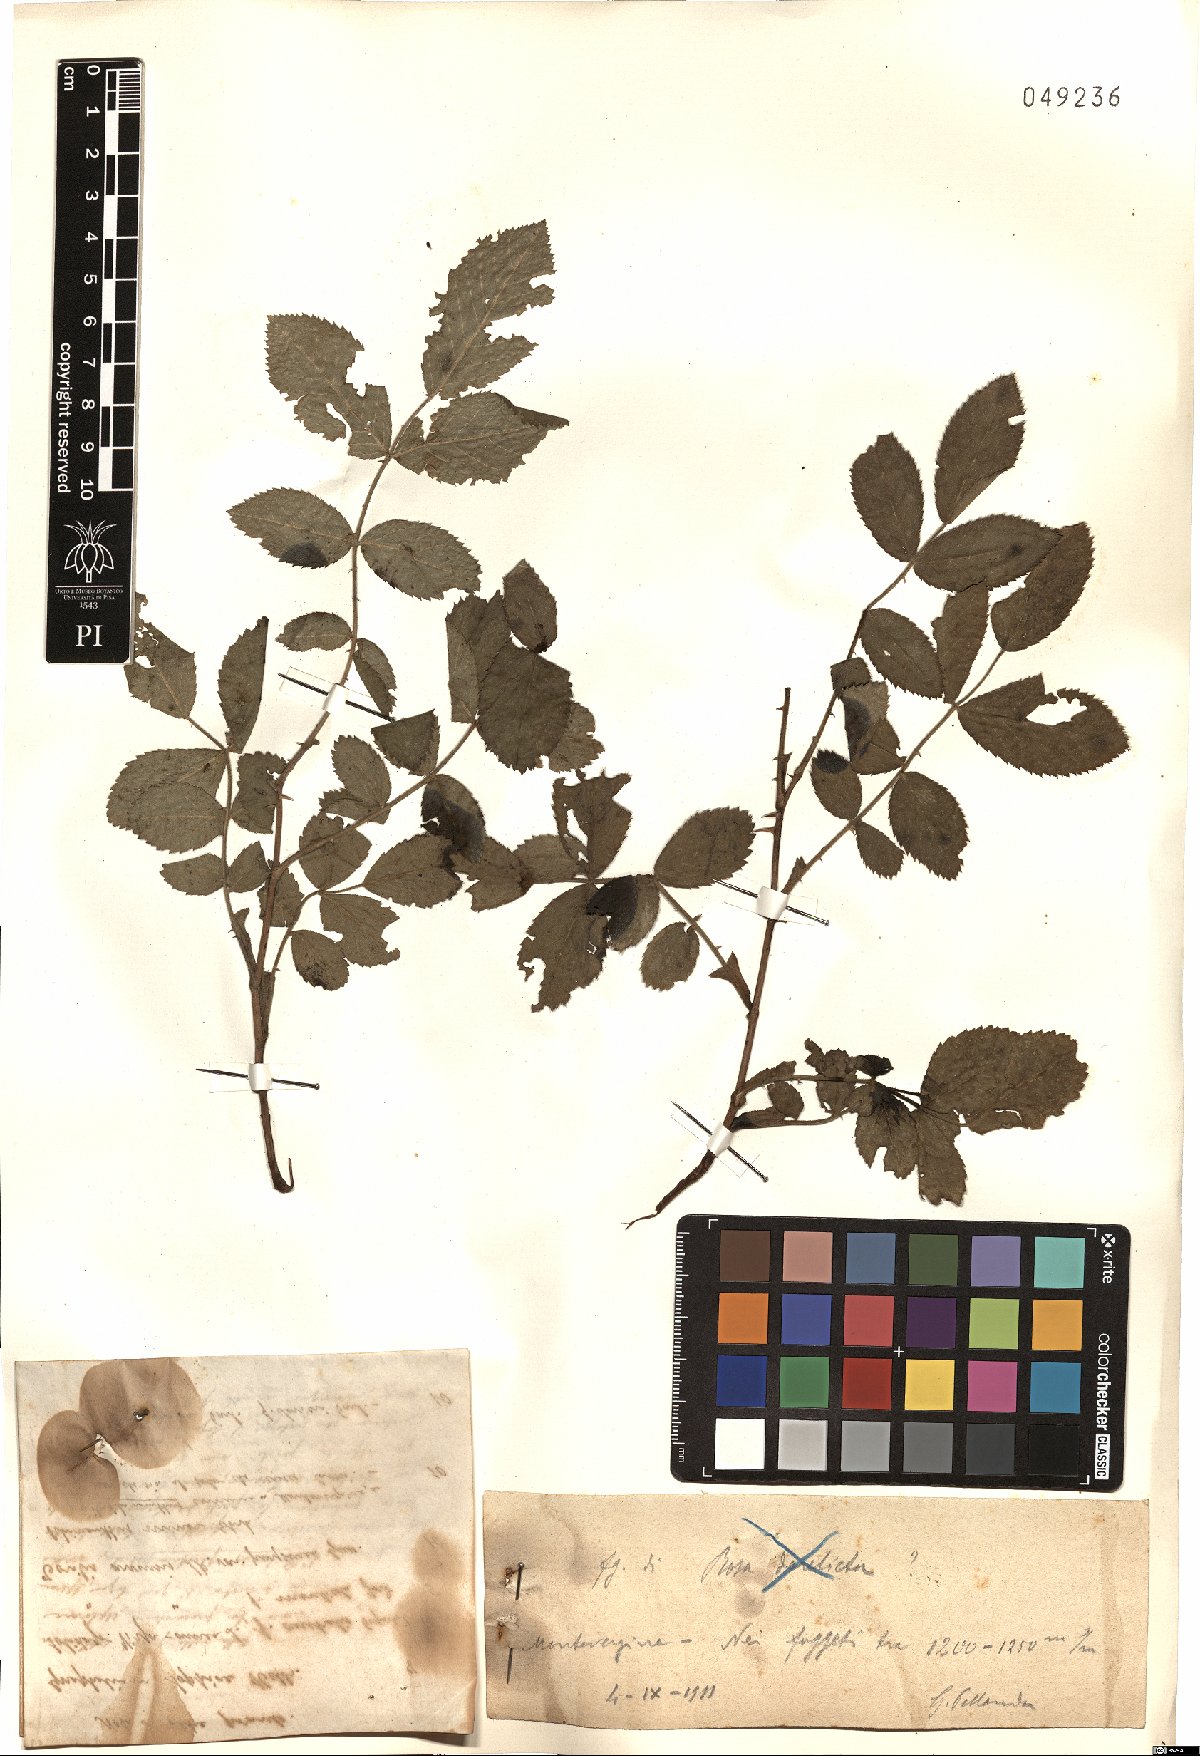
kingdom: Plantae
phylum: Tracheophyta
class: Magnoliopsida
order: Rosales
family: Rosaceae
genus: Rosa
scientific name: Rosa
